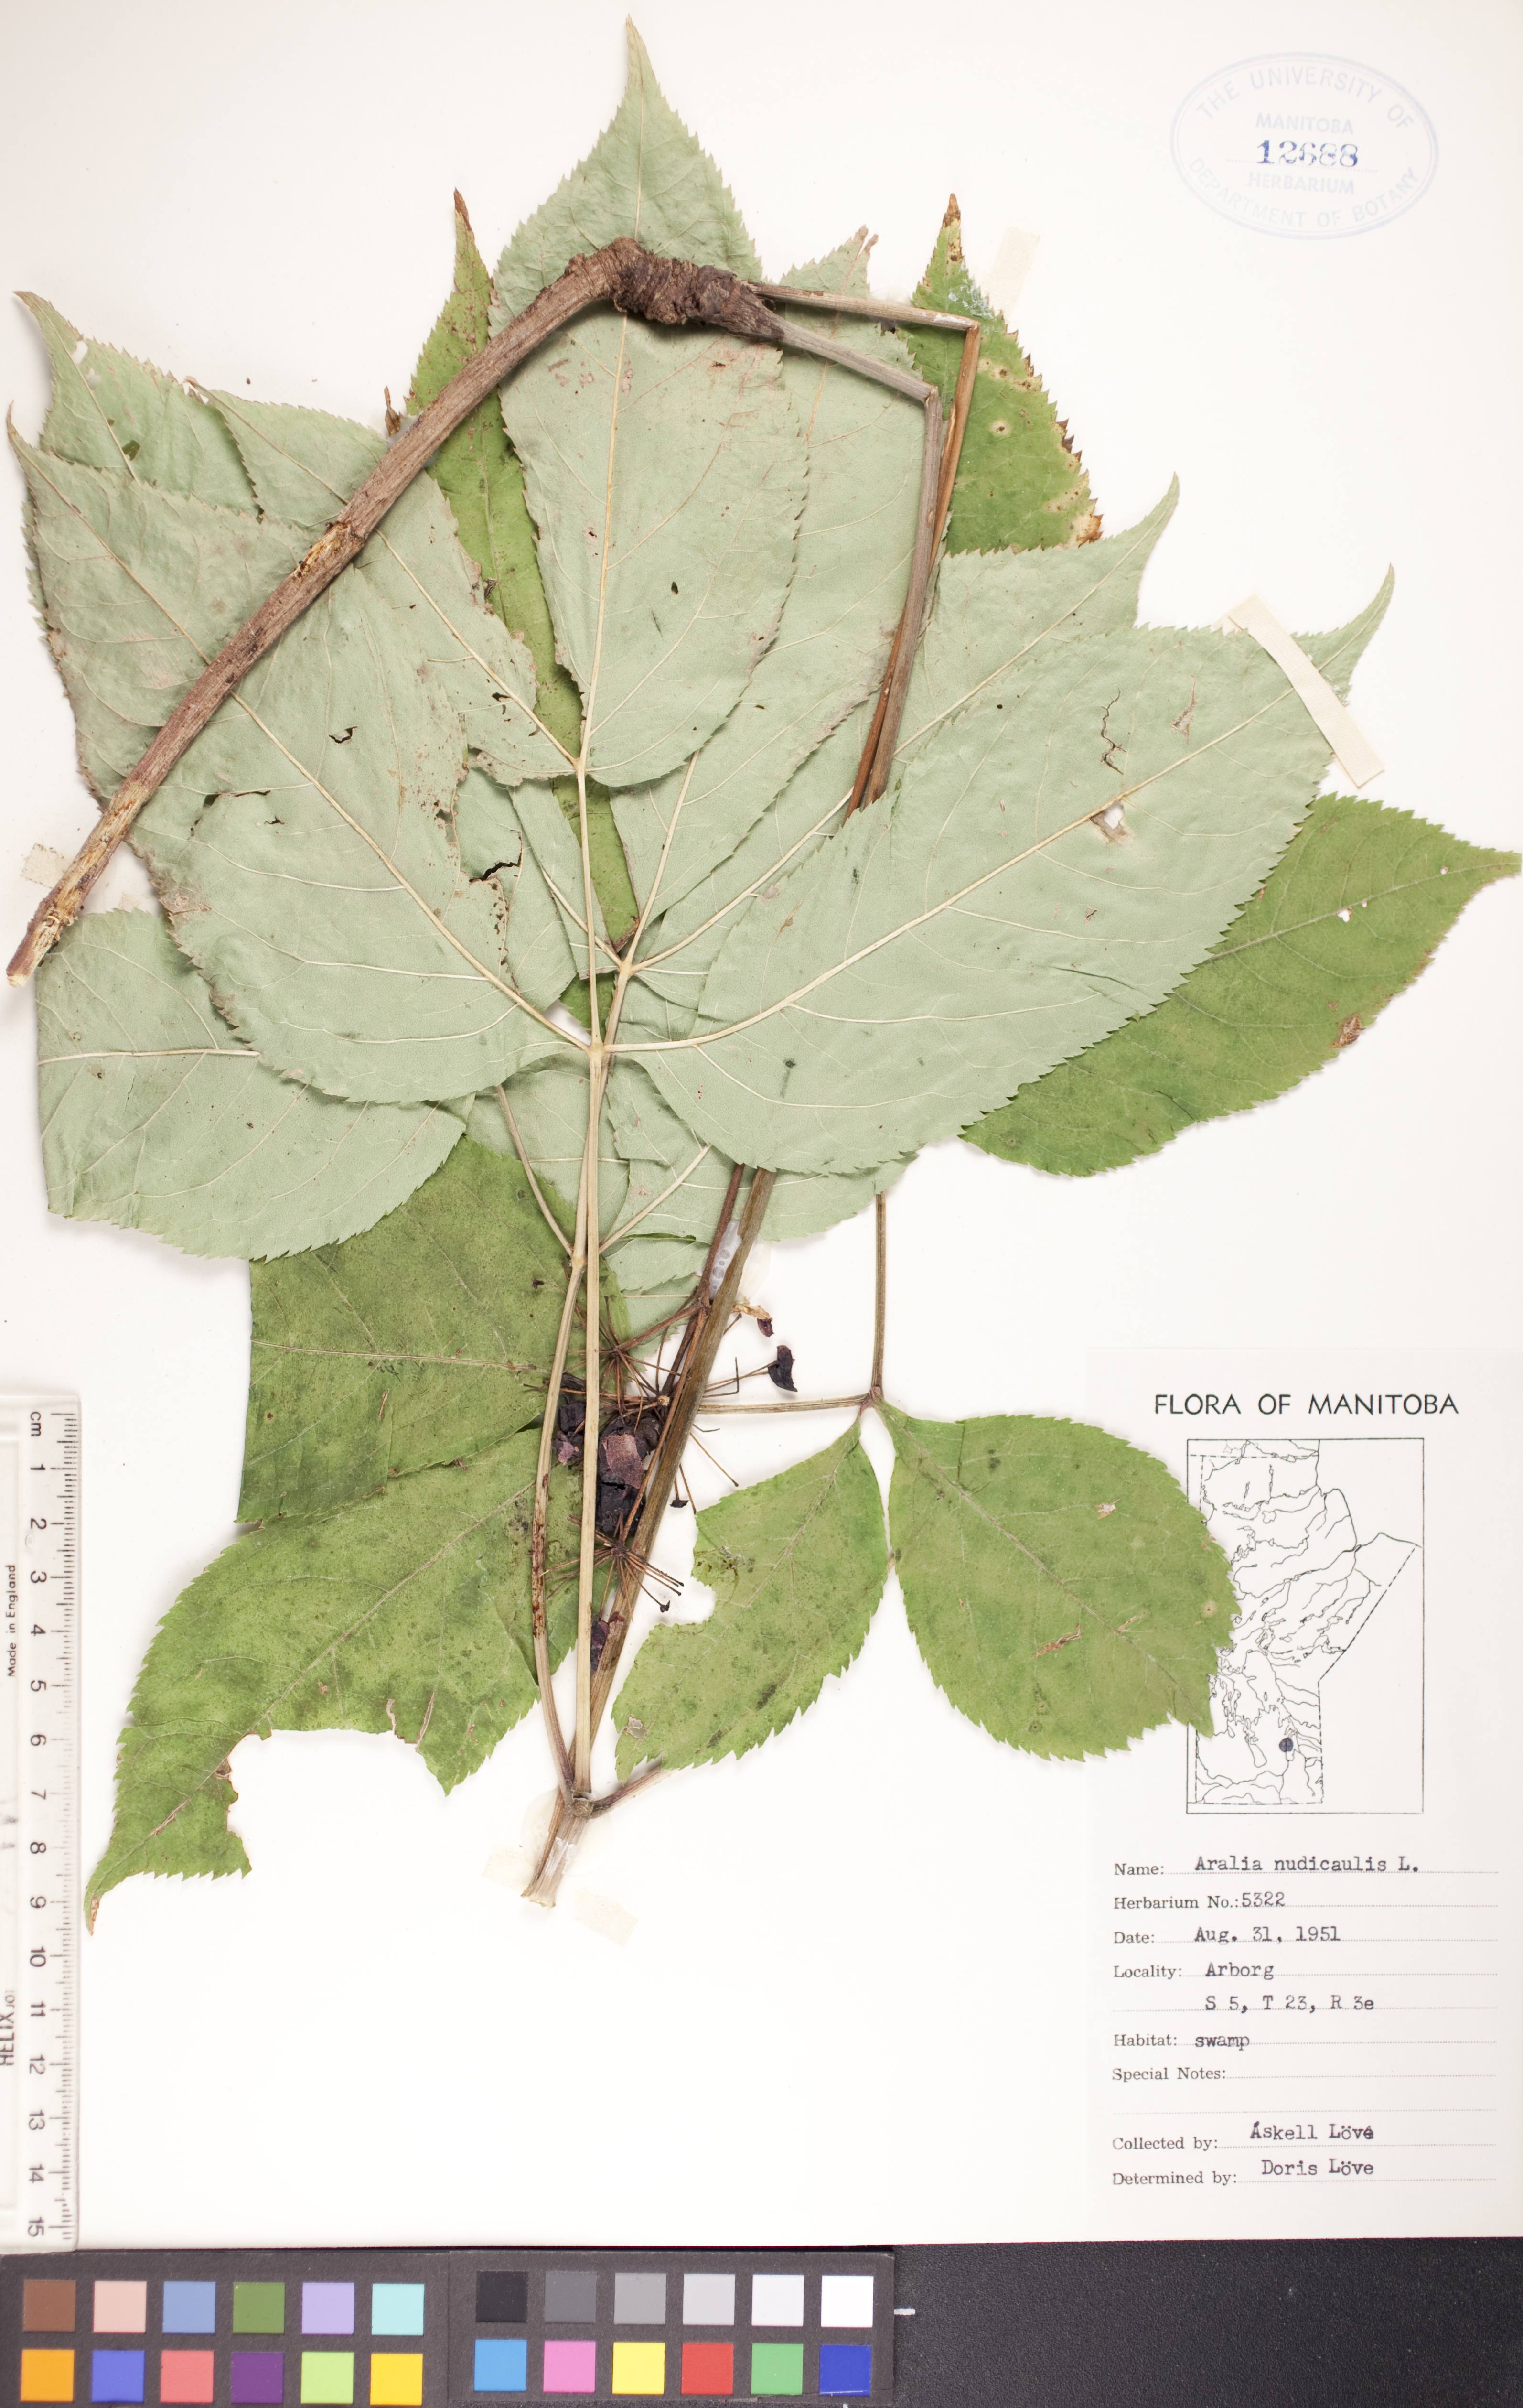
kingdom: Plantae
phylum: Tracheophyta
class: Magnoliopsida
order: Apiales
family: Araliaceae
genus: Aralia
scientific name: Aralia nudicaulis
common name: Wild sarsaparilla
